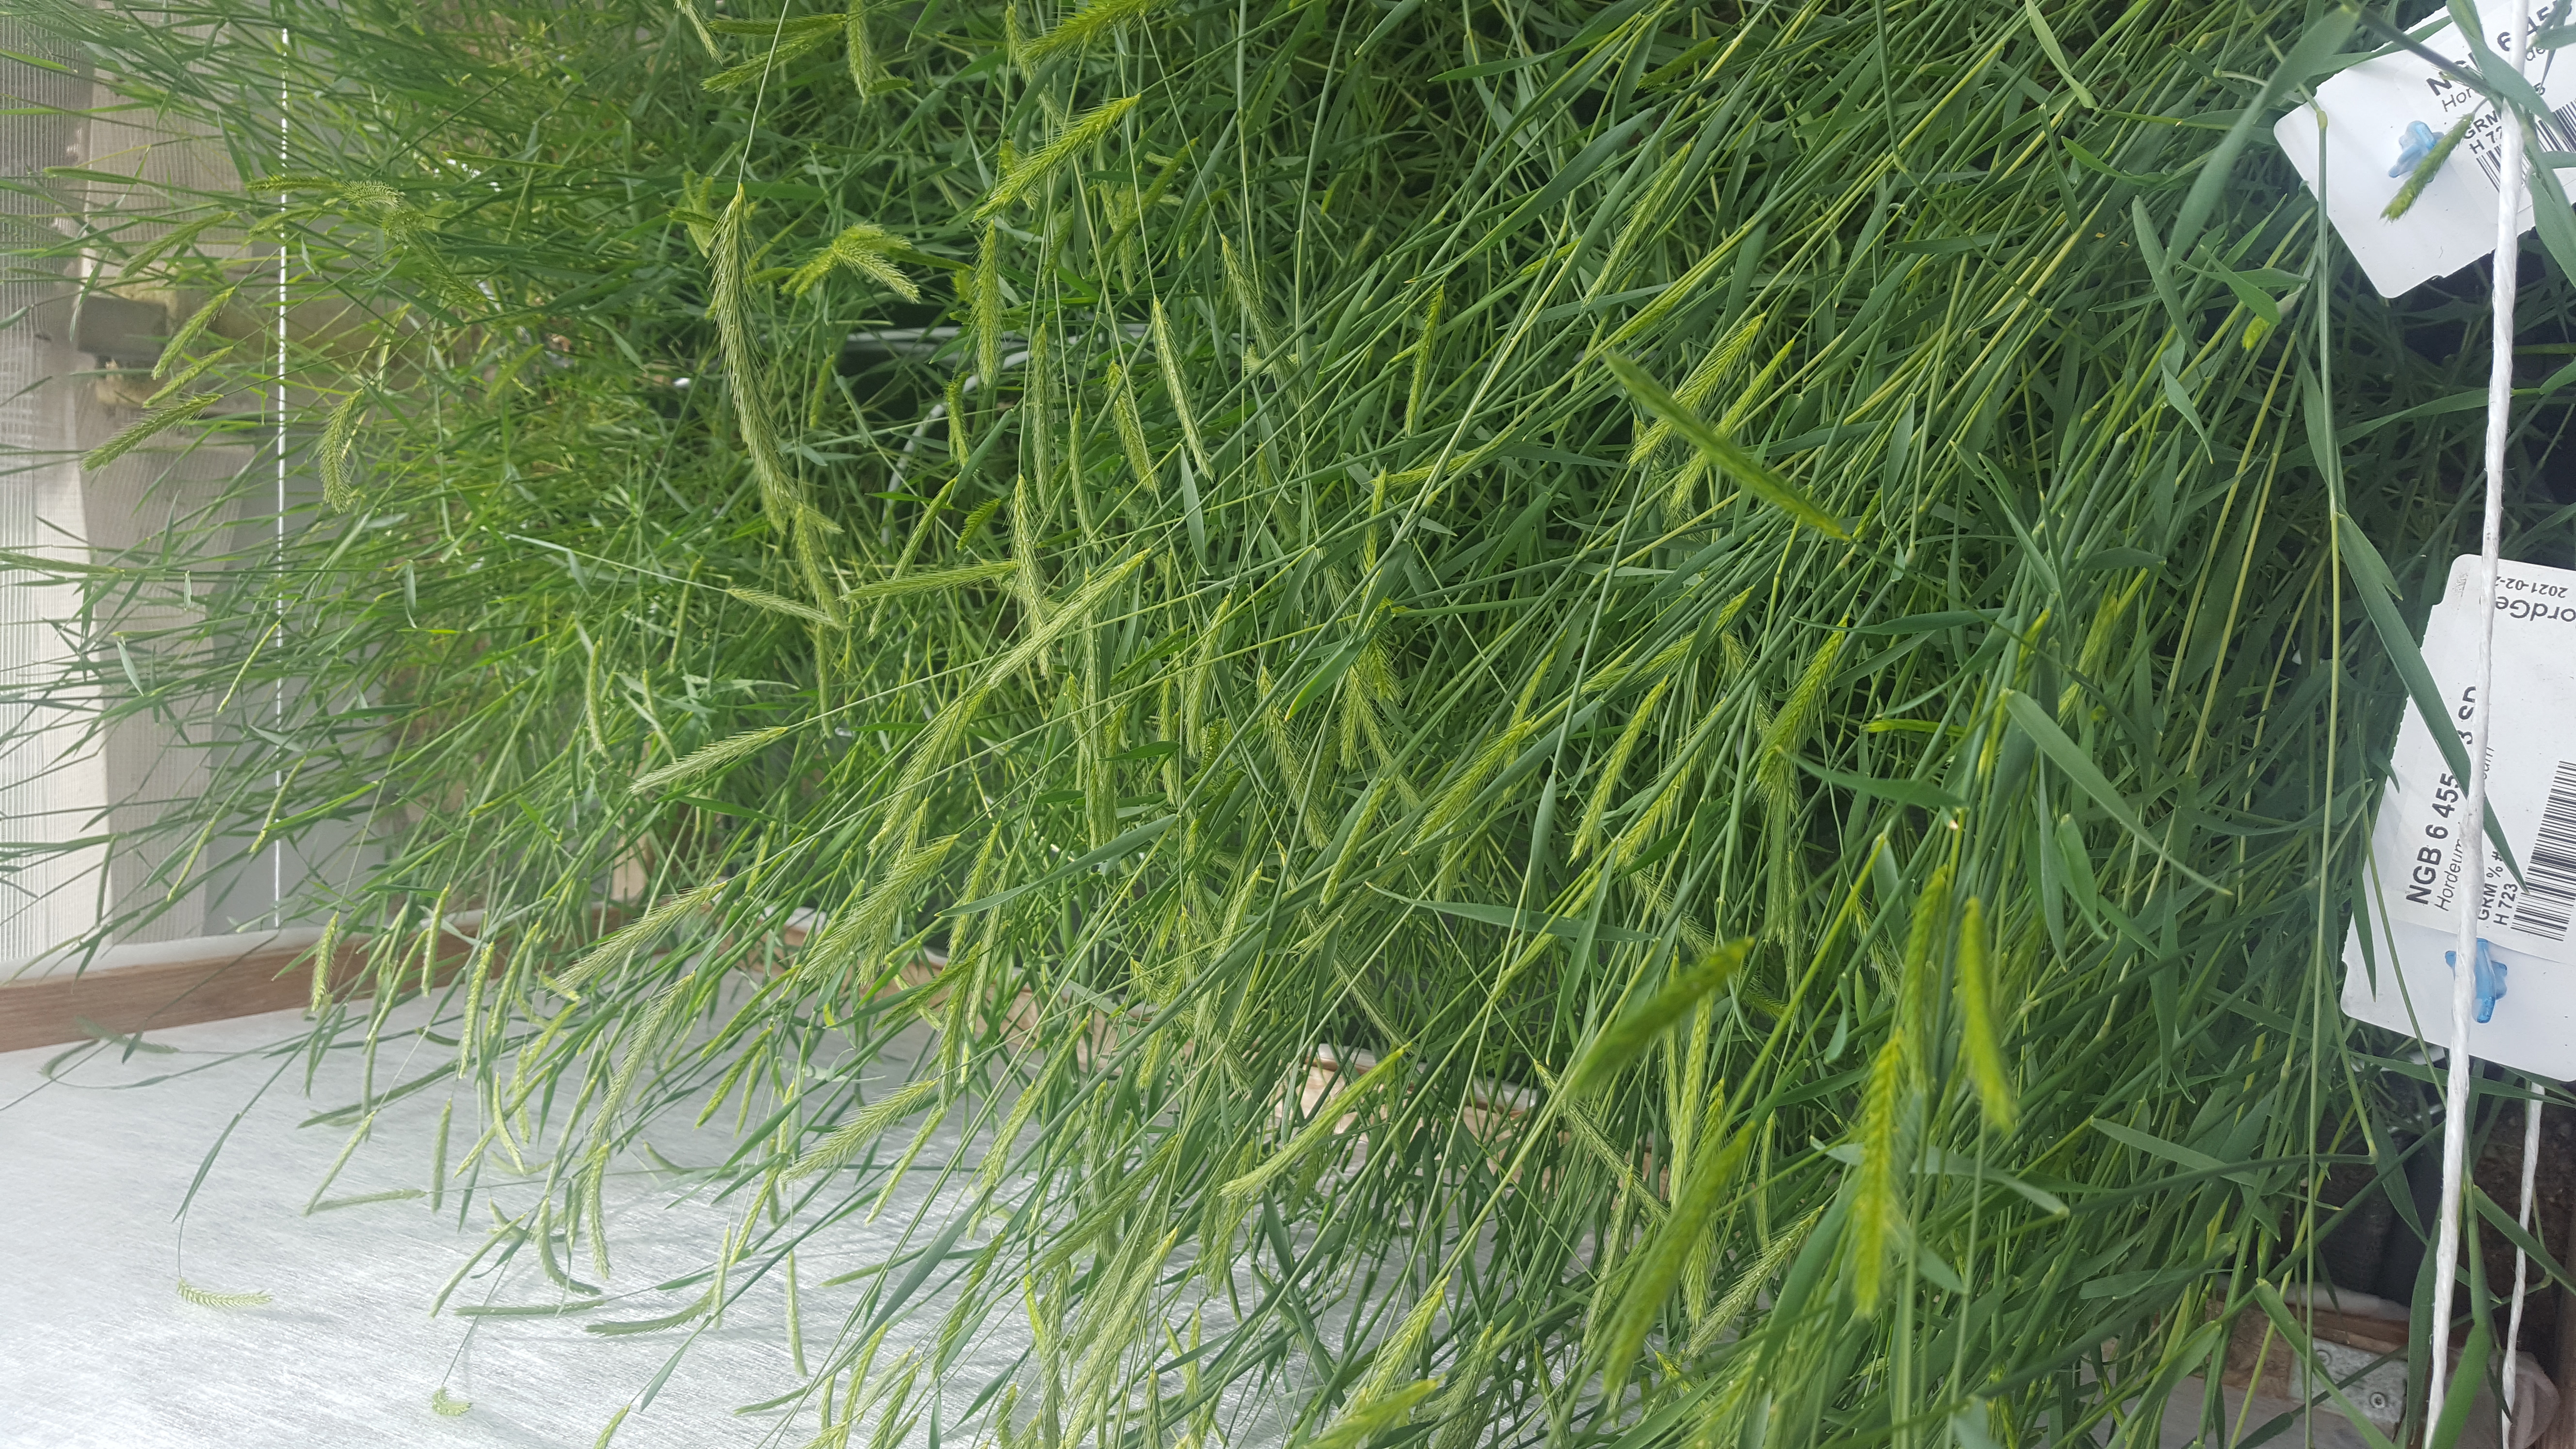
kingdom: Plantae
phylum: Tracheophyta
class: Liliopsida
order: Poales
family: Poaceae
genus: Hordeum
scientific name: Hordeum depressum
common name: Low barley
